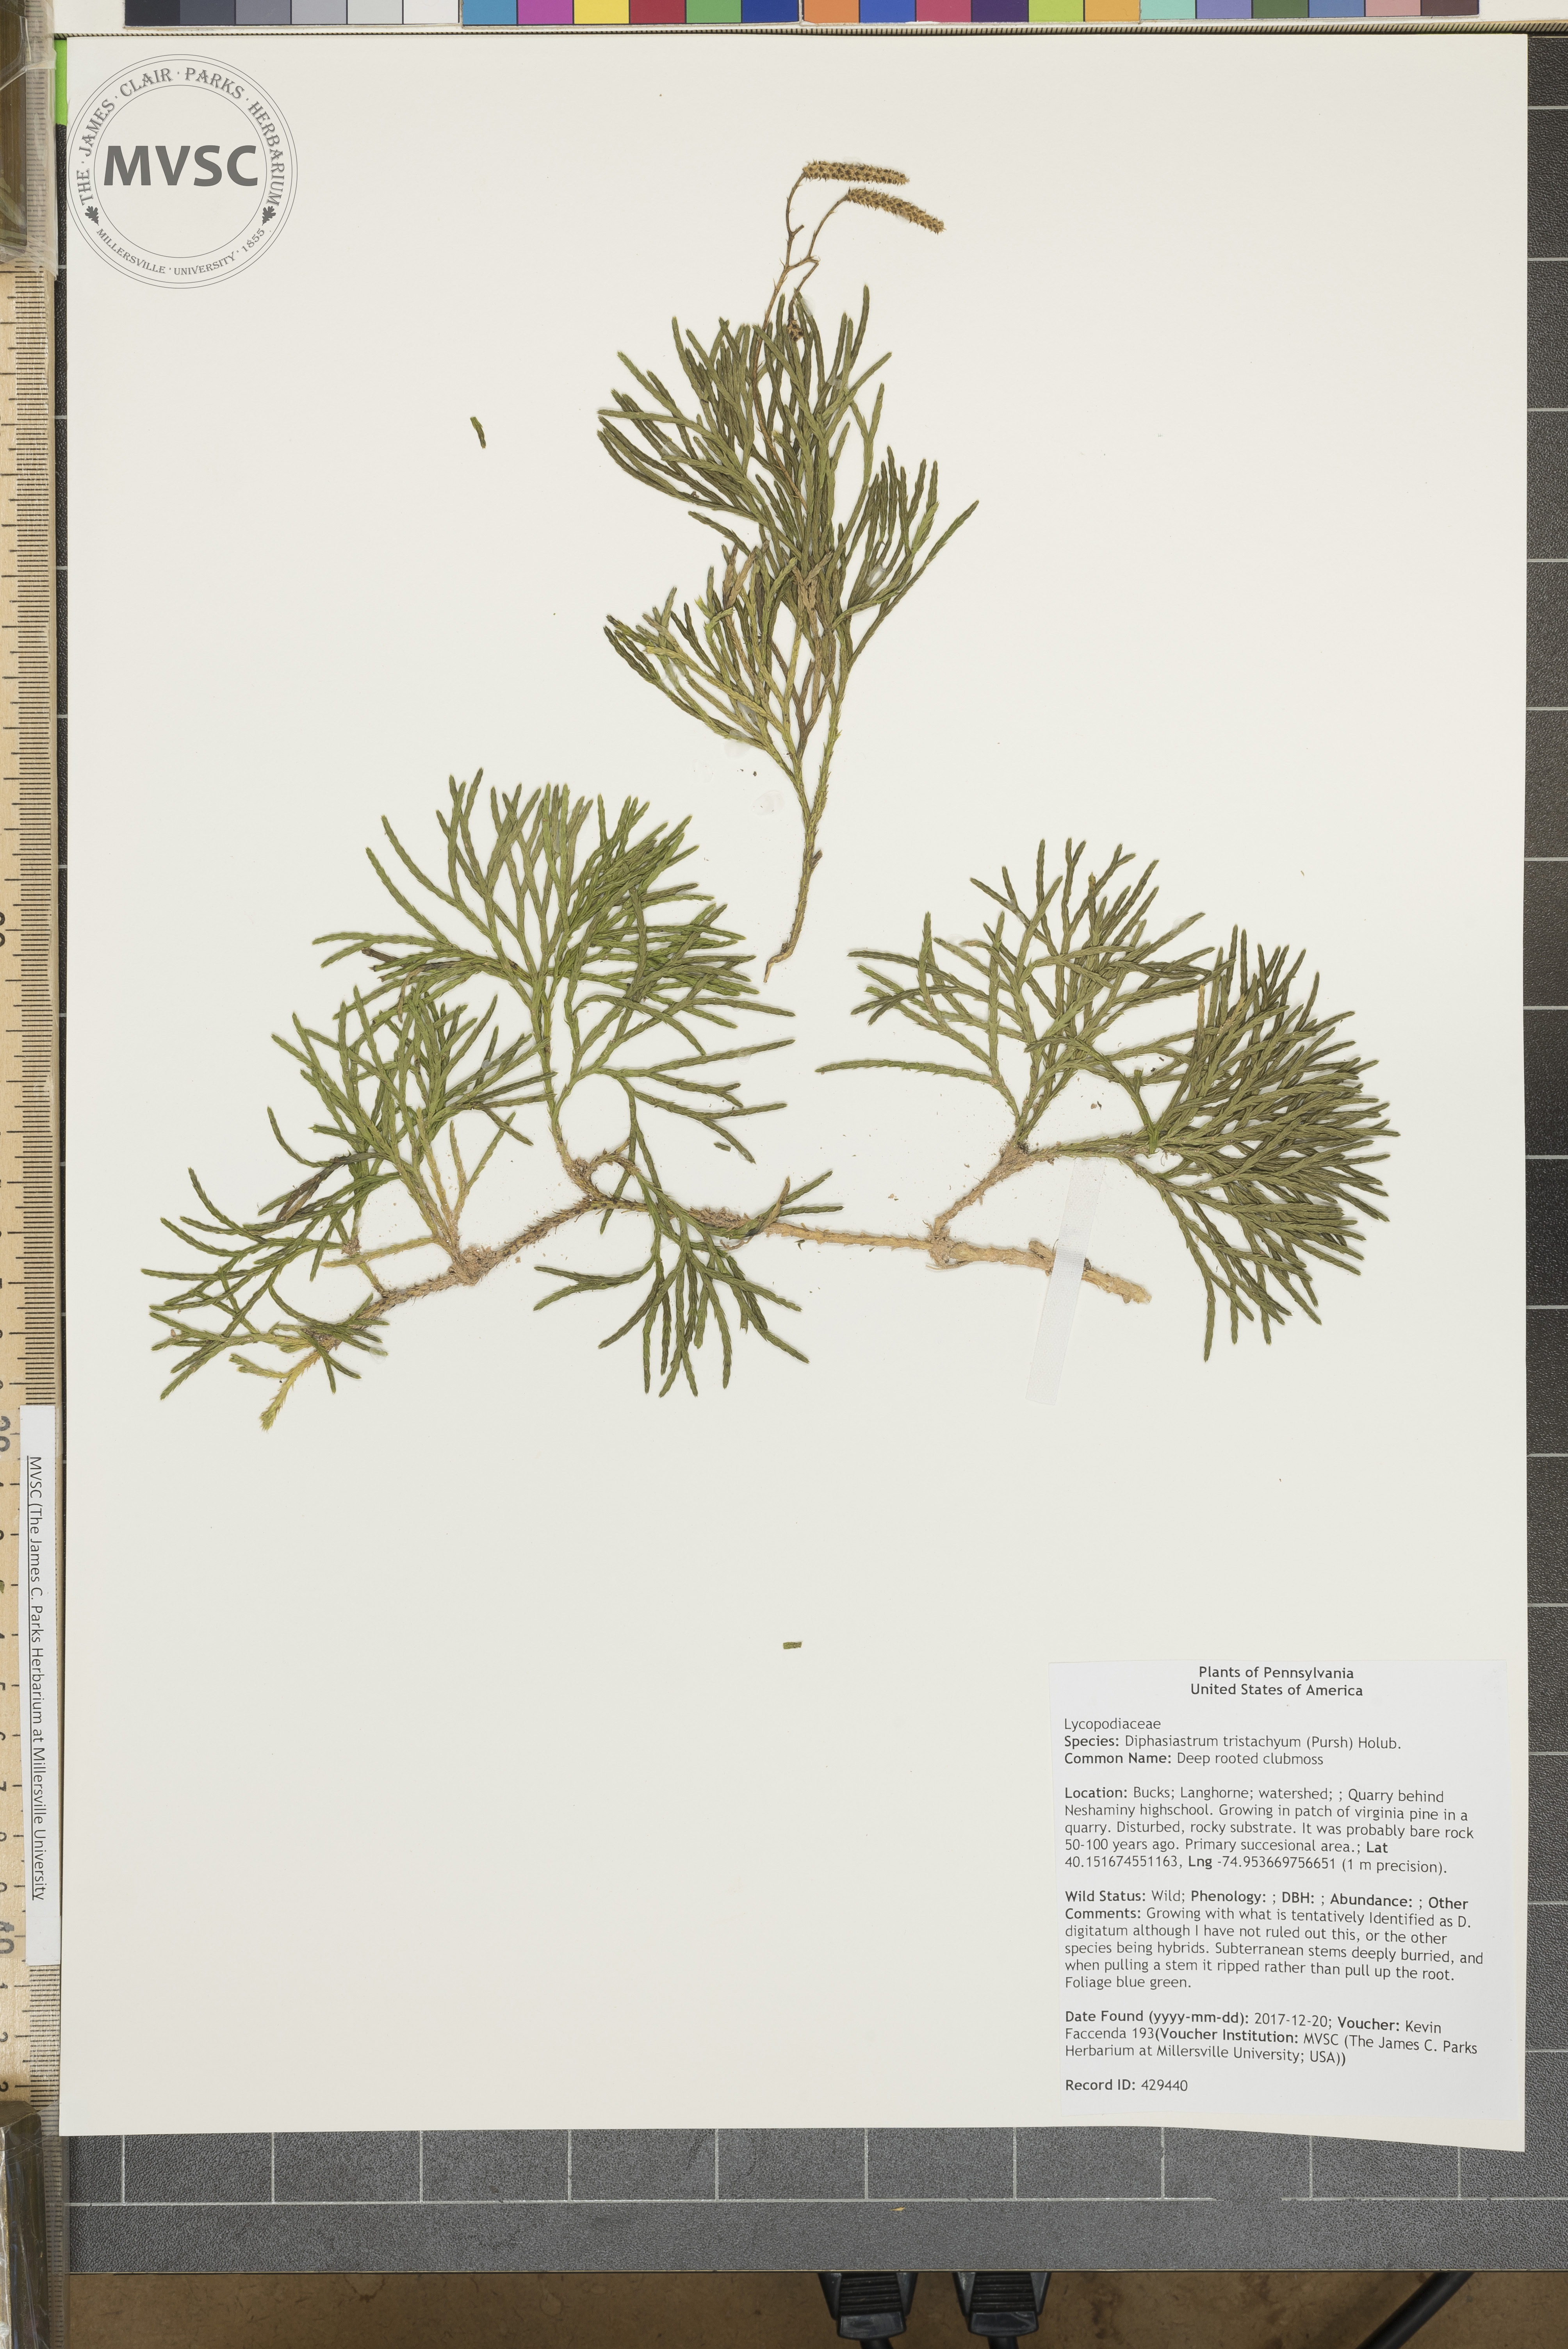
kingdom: Plantae
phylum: Tracheophyta
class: Lycopodiopsida
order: Lycopodiales
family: Lycopodiaceae
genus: Diphasiastrum
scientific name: Diphasiastrum tristachyum
